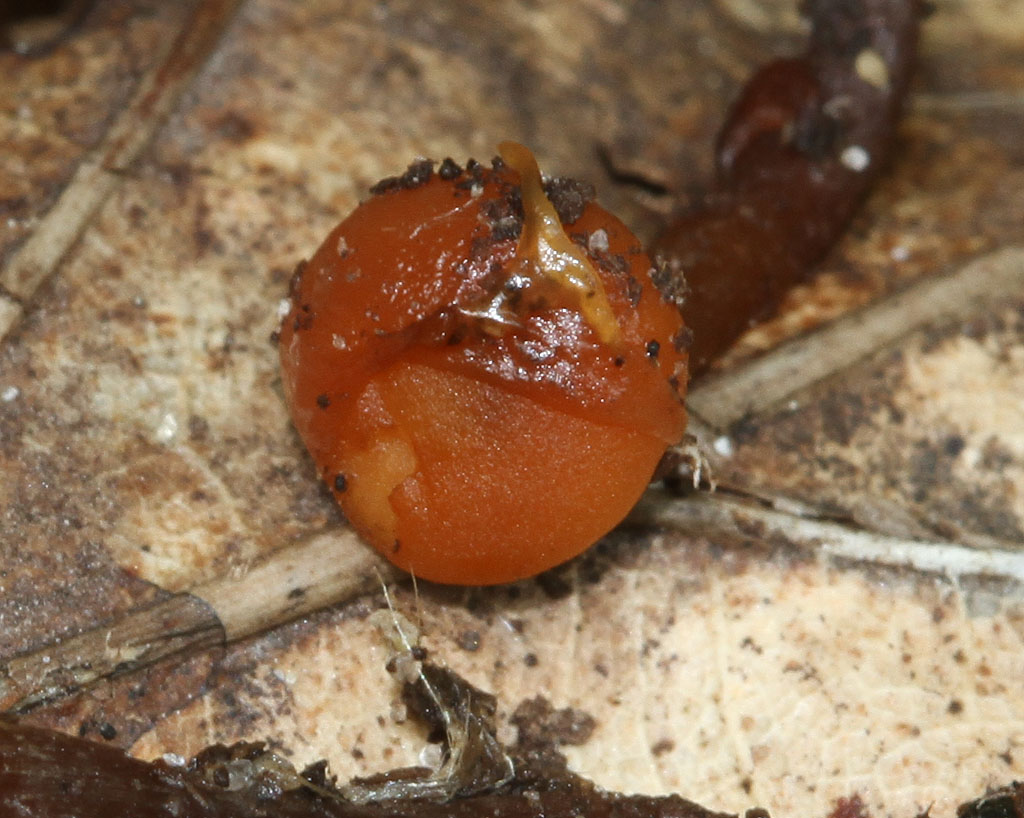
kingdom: Fungi
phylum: Basidiomycota
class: Agaricomycetes
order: Agaricales
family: Strophariaceae
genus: Deconica
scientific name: Deconica crobula
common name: træflis-stråhat
